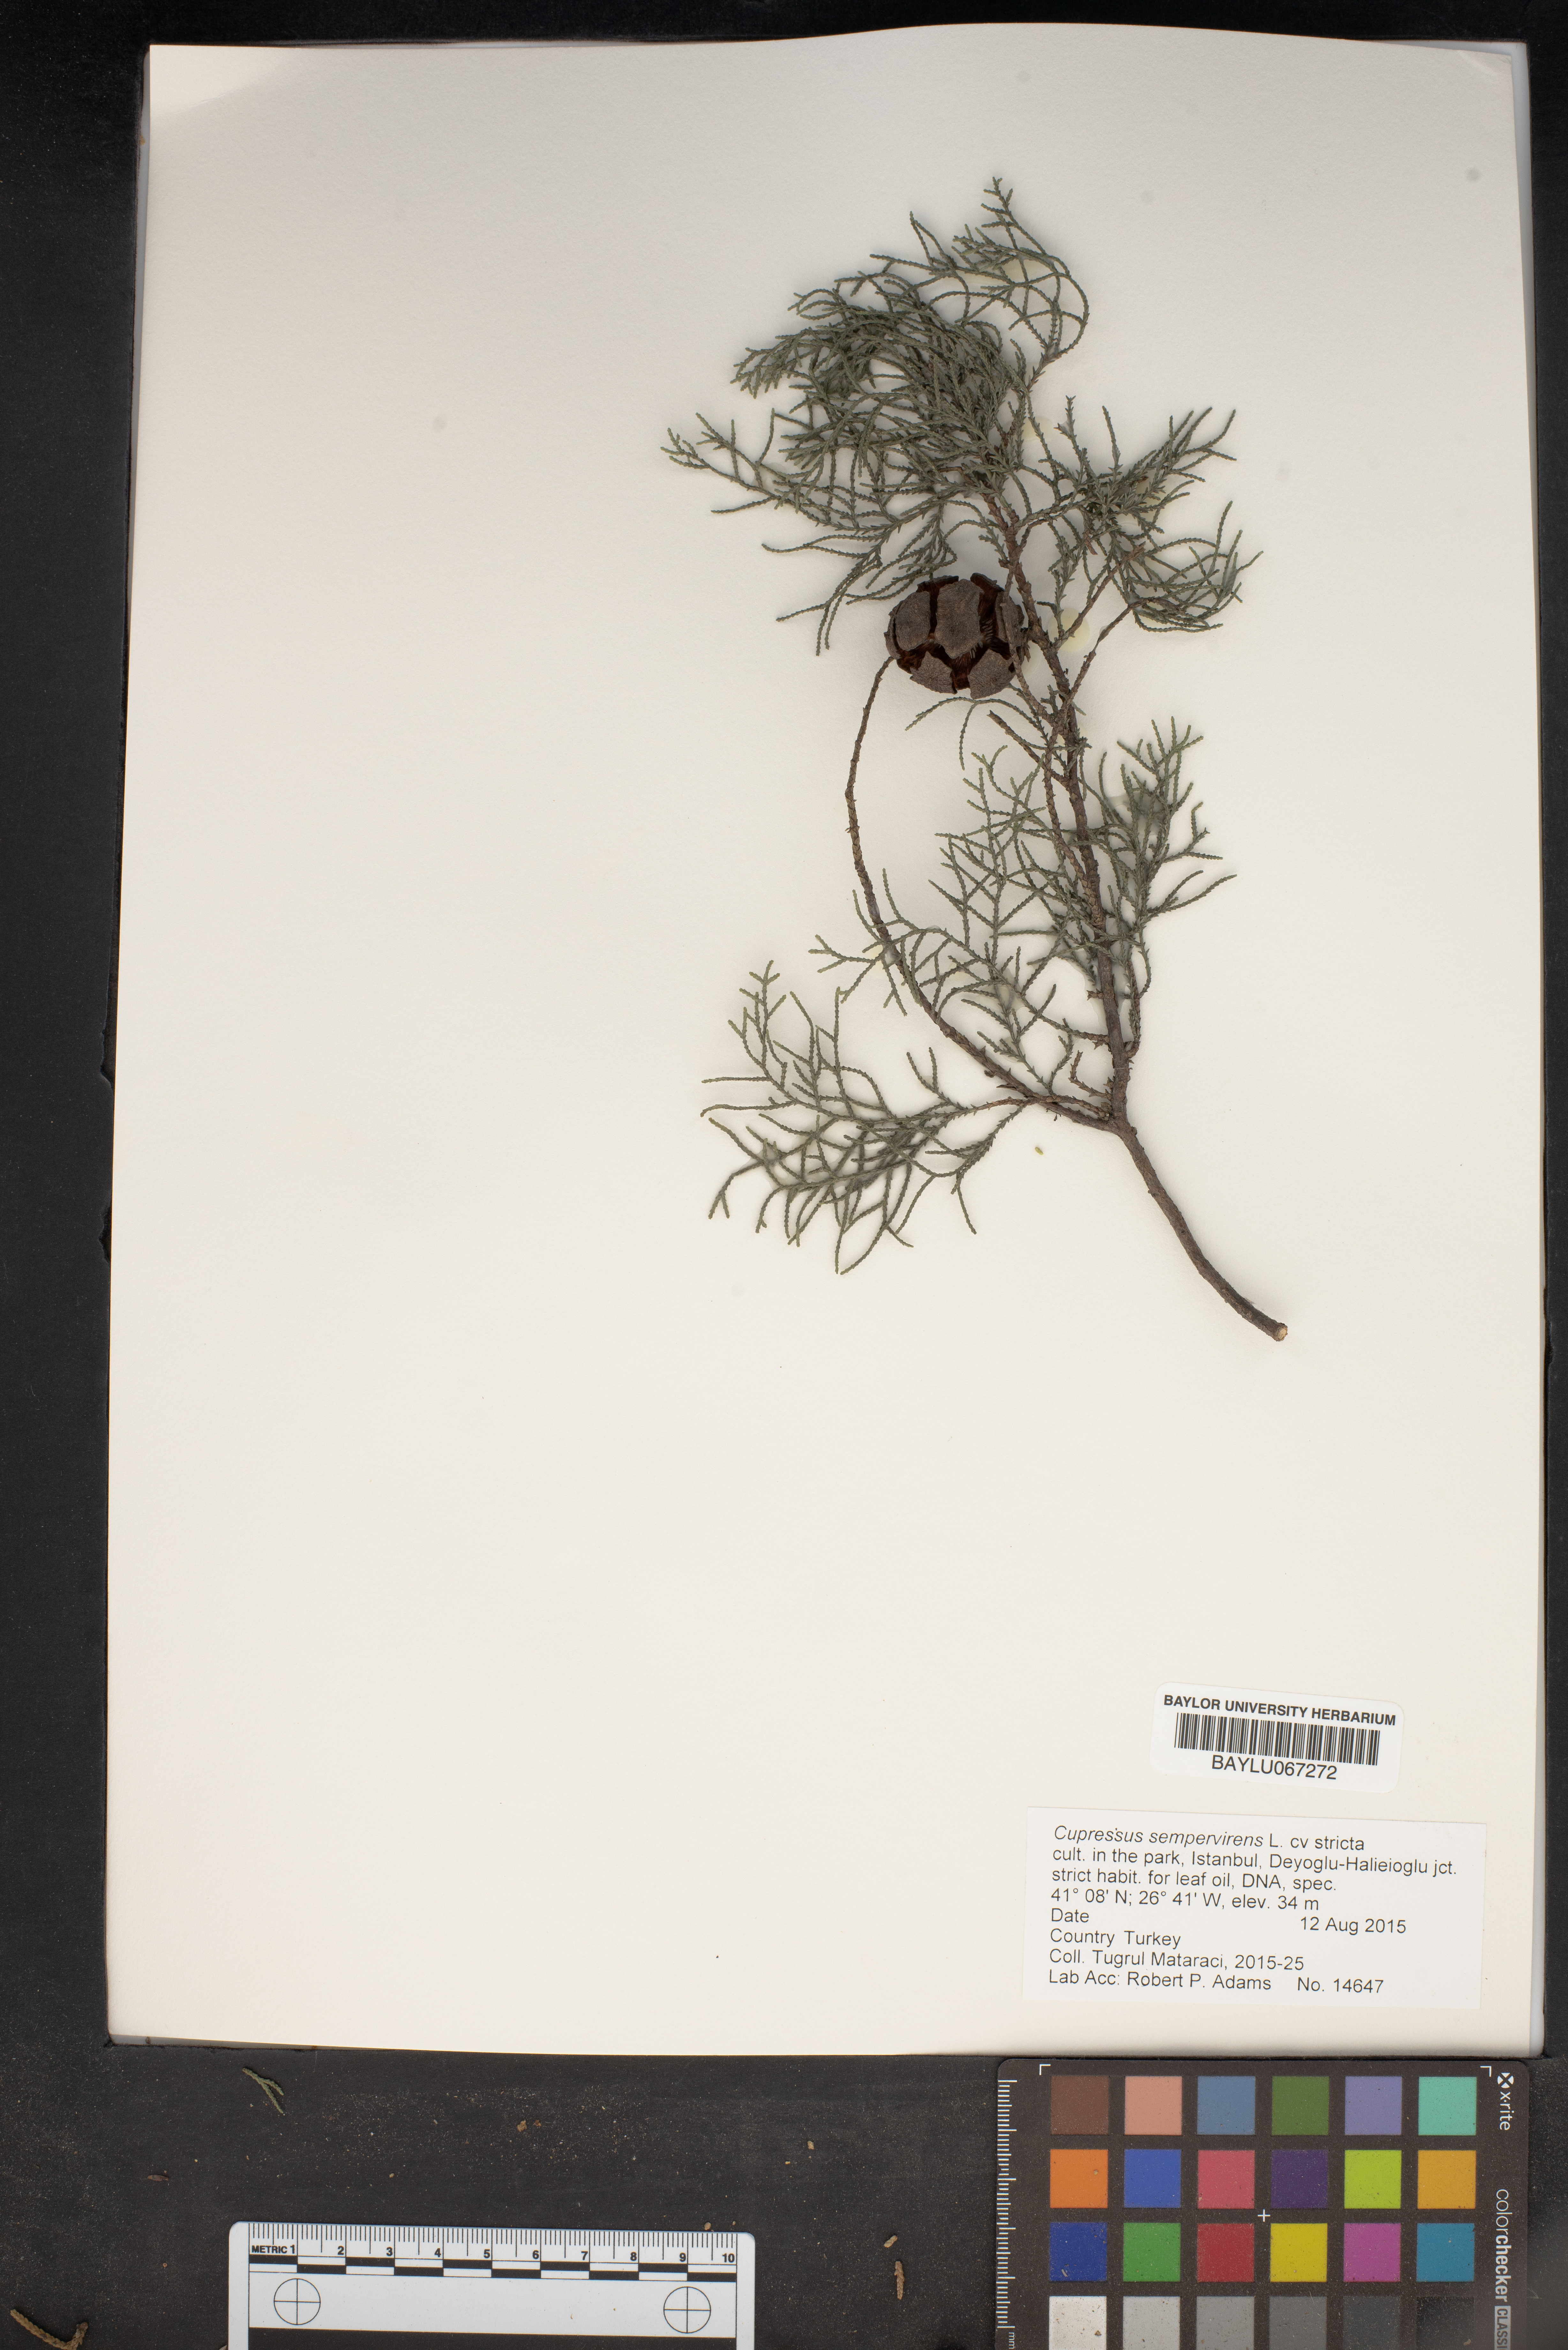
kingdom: Plantae
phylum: Tracheophyta
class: Pinopsida
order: Pinales
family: Cupressaceae
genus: Cupressus
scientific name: Cupressus sempervirens
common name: Italian cypress
